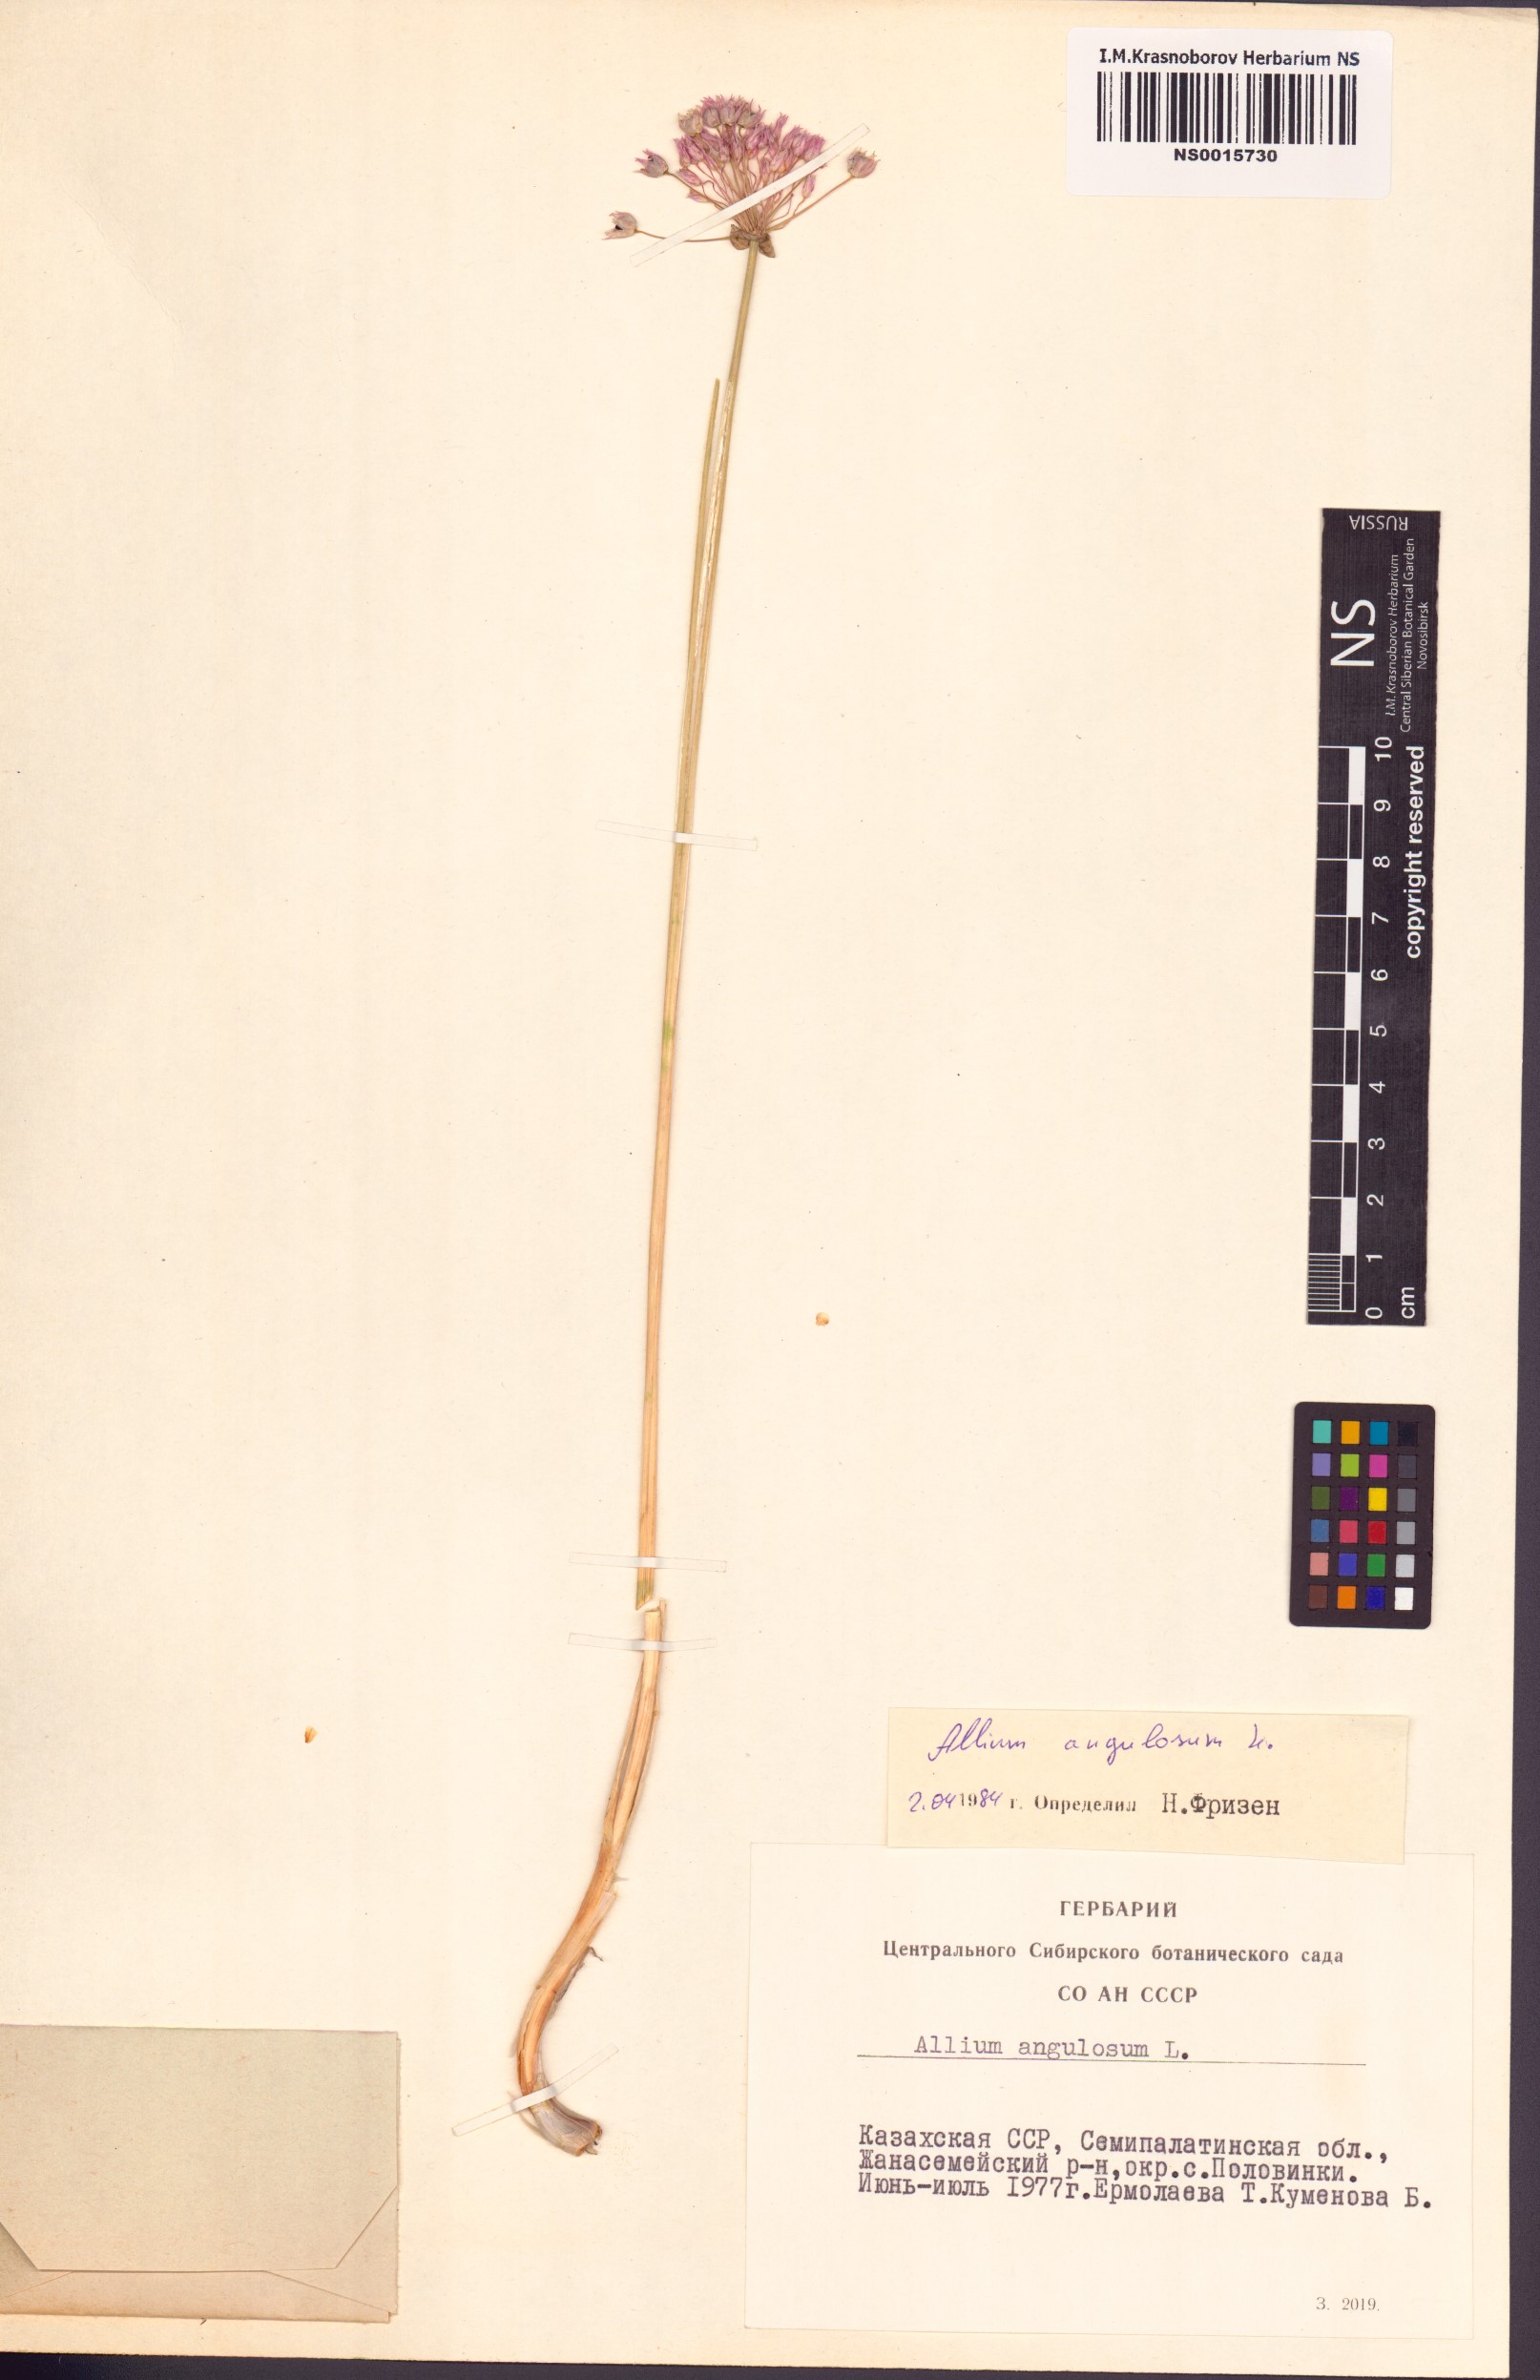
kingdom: Plantae
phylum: Tracheophyta
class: Liliopsida
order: Asparagales
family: Amaryllidaceae
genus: Allium
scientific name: Allium angulosum
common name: Mouse garlic
